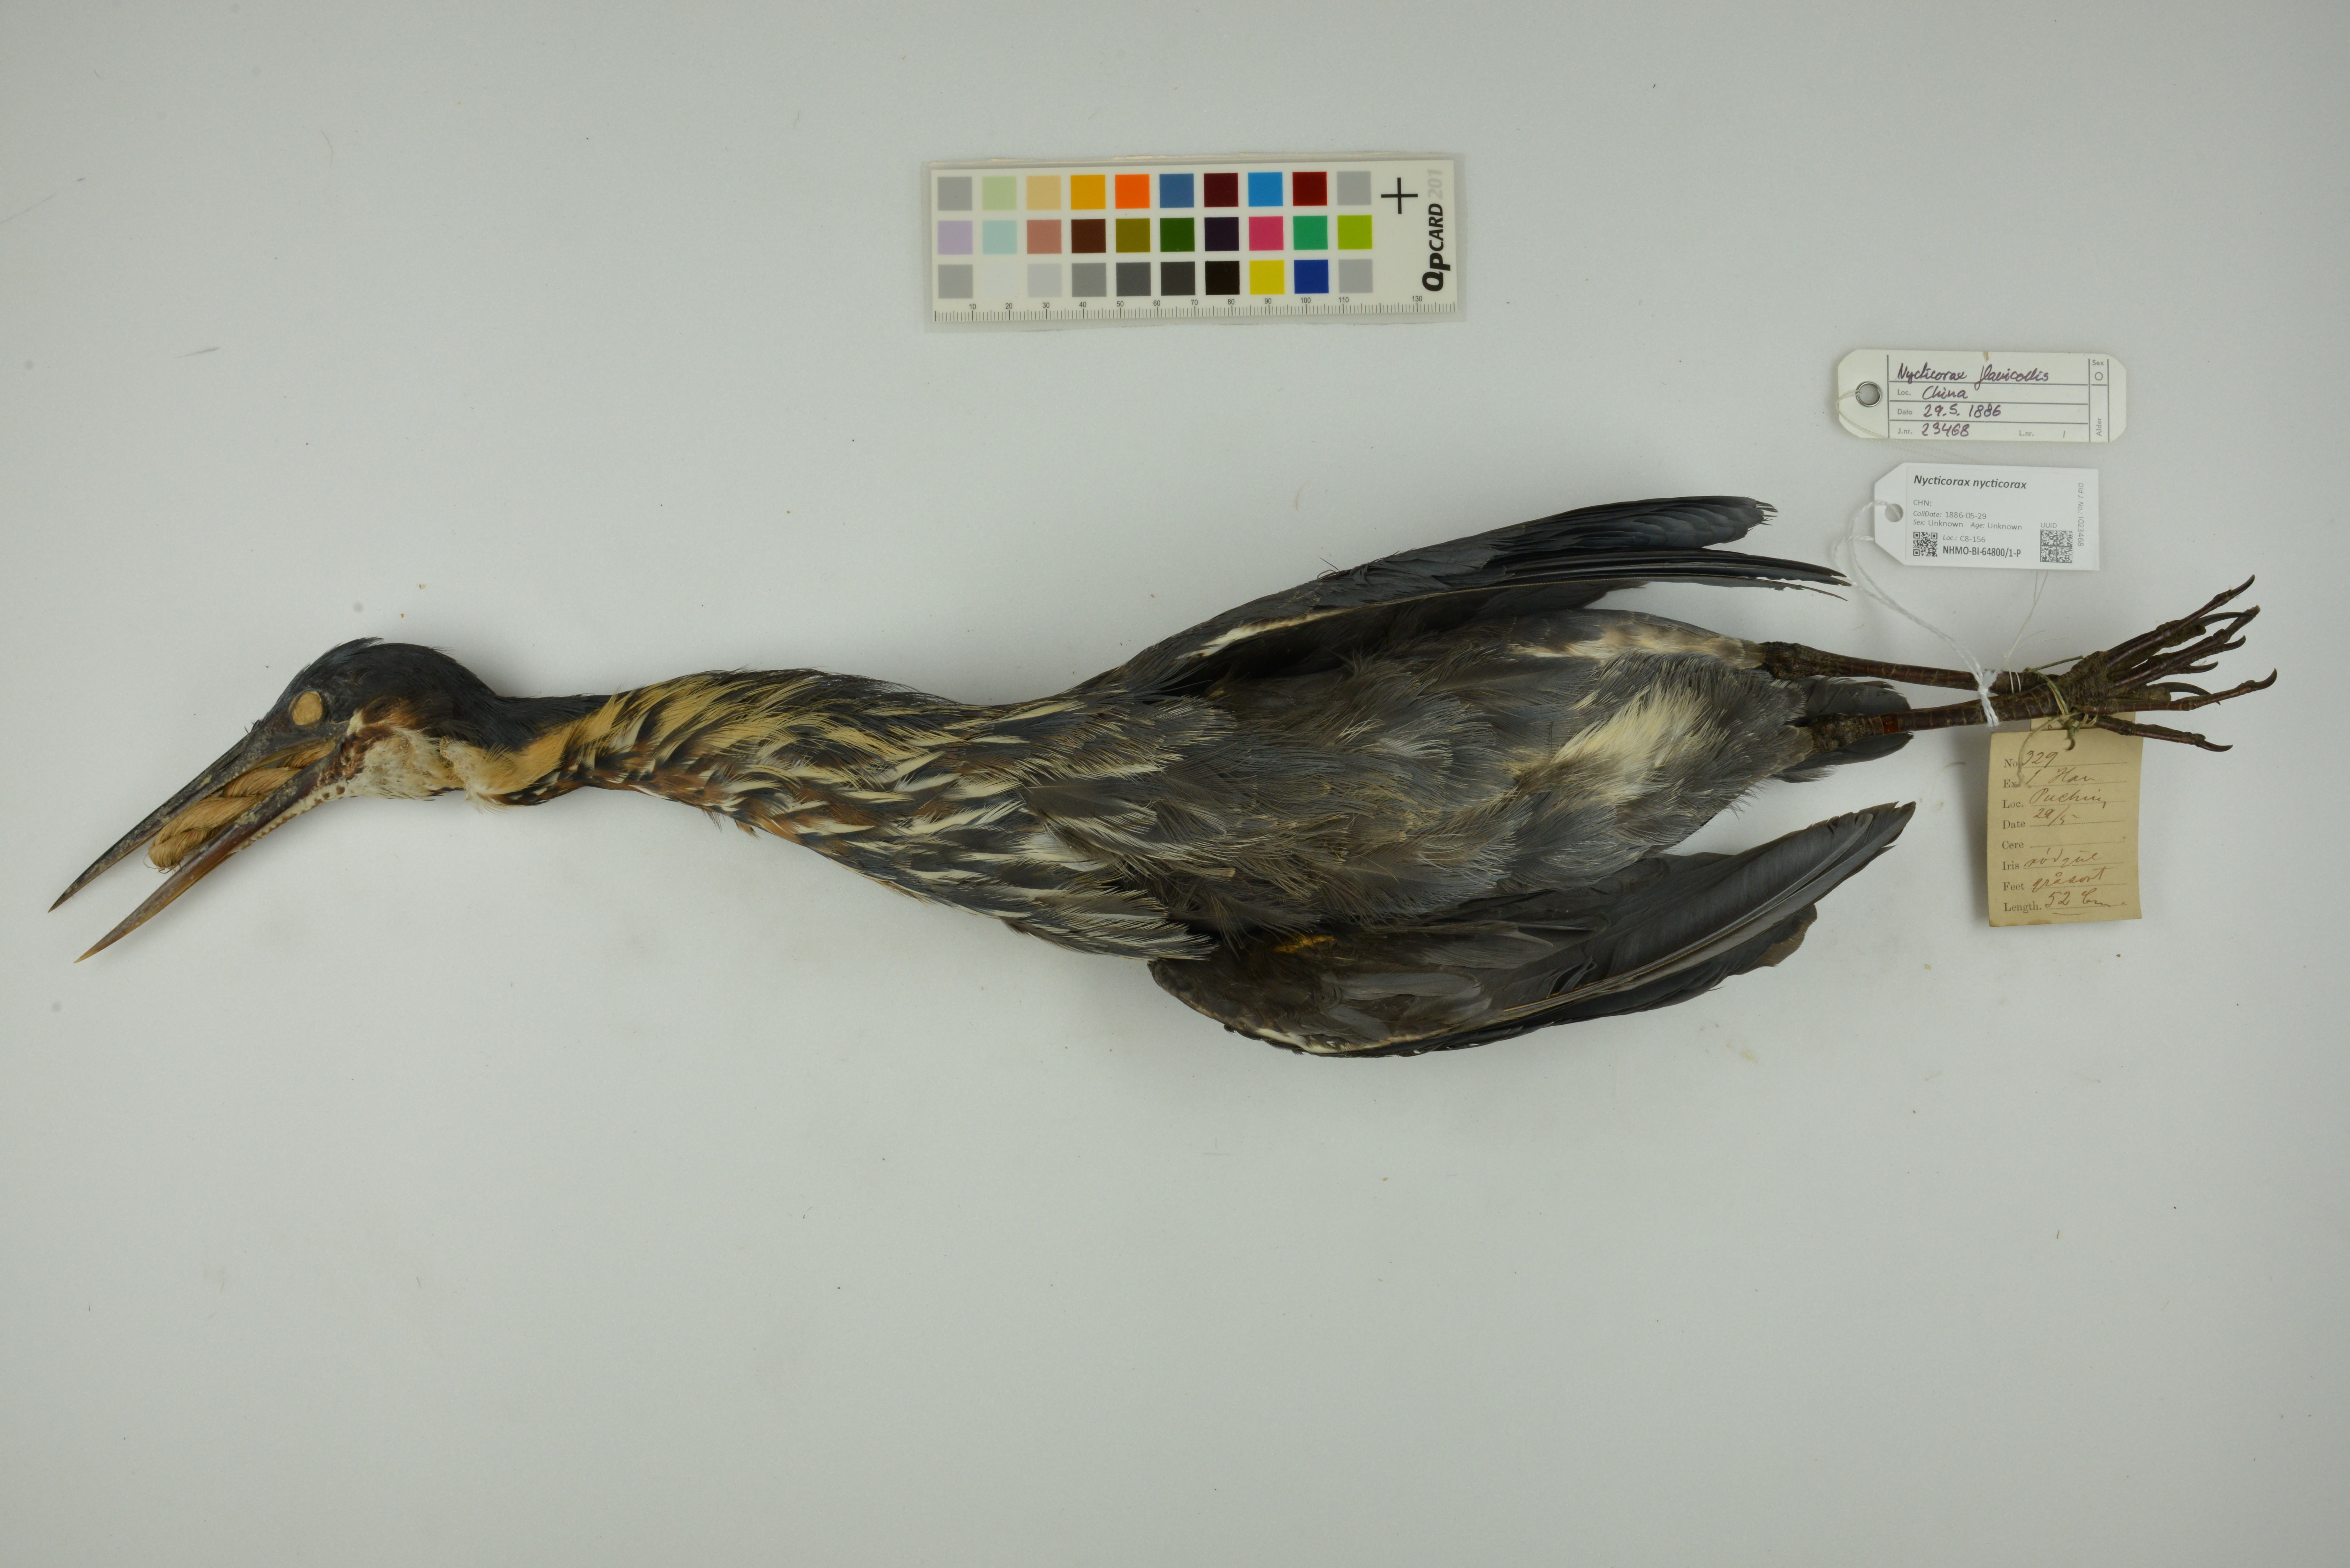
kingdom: Animalia
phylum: Chordata
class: Aves
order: Pelecaniformes
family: Ardeidae
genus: Nycticorax
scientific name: Nycticorax nycticorax
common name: Black-crowned night heron
